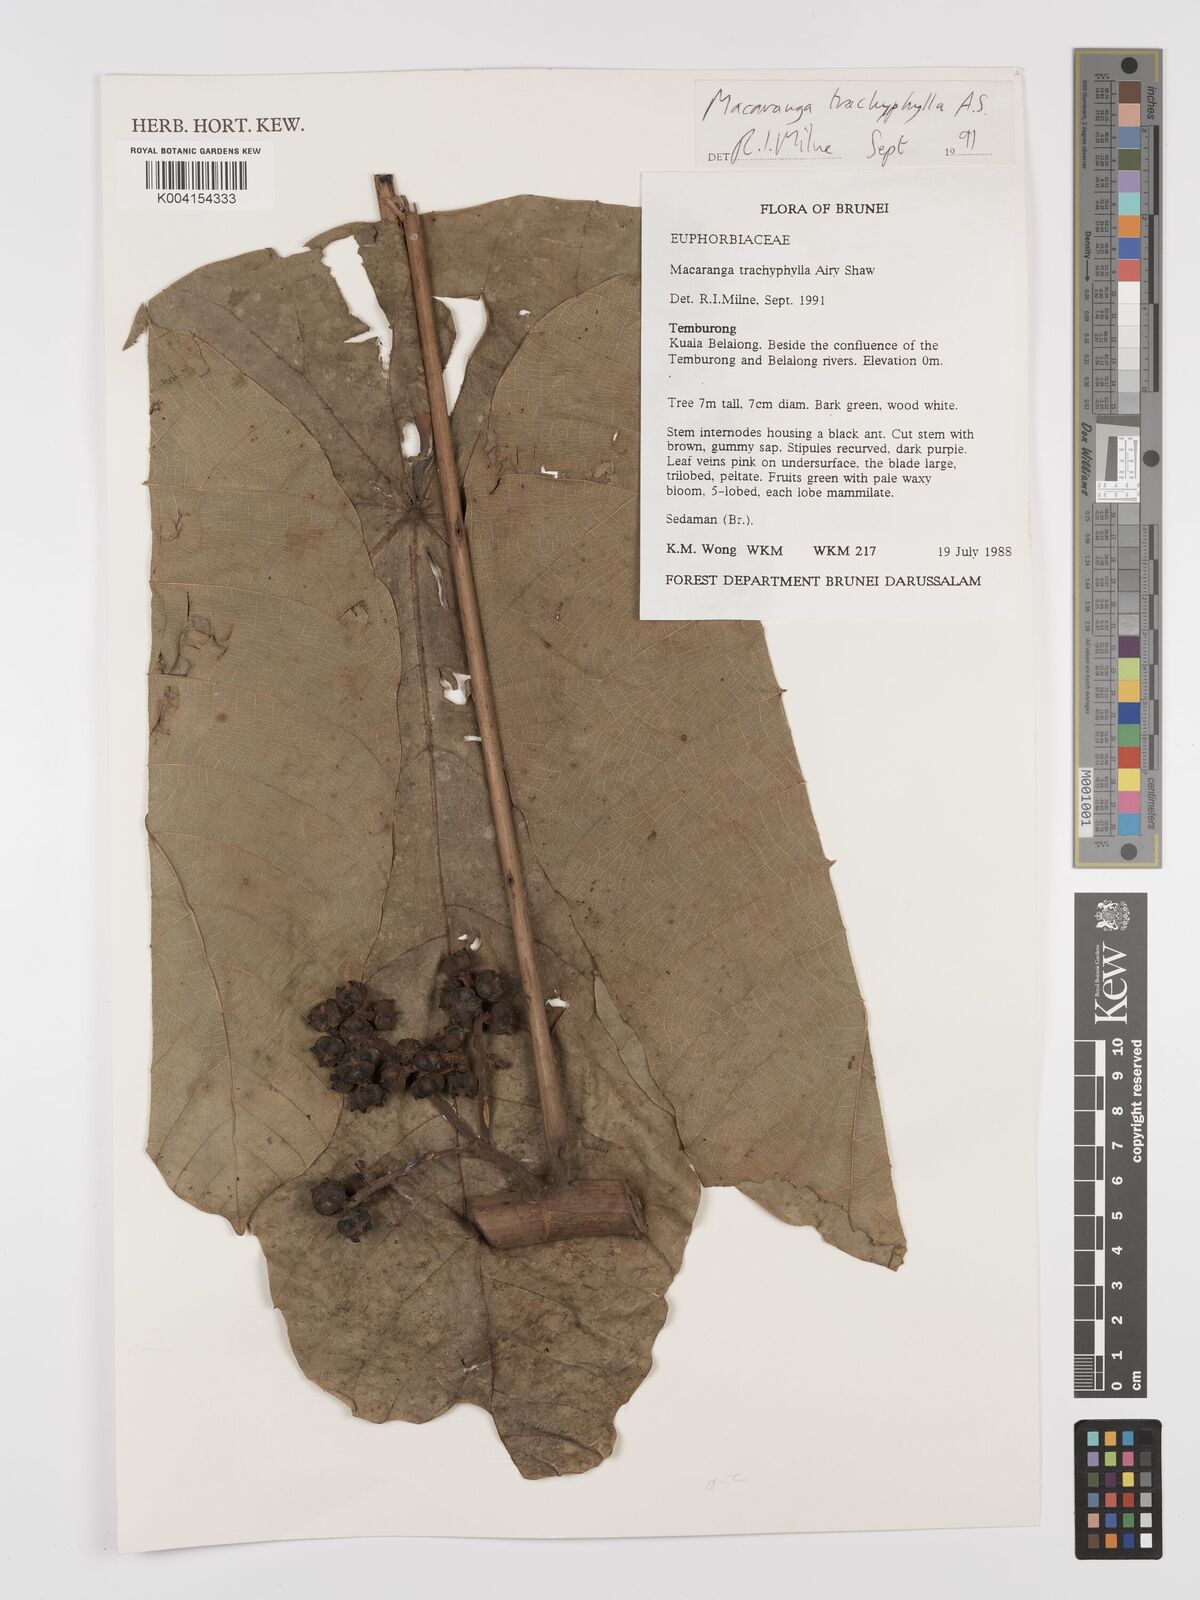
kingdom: Plantae
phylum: Tracheophyta
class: Magnoliopsida
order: Malpighiales
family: Euphorbiaceae
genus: Macaranga
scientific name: Macaranga trachyphylla
